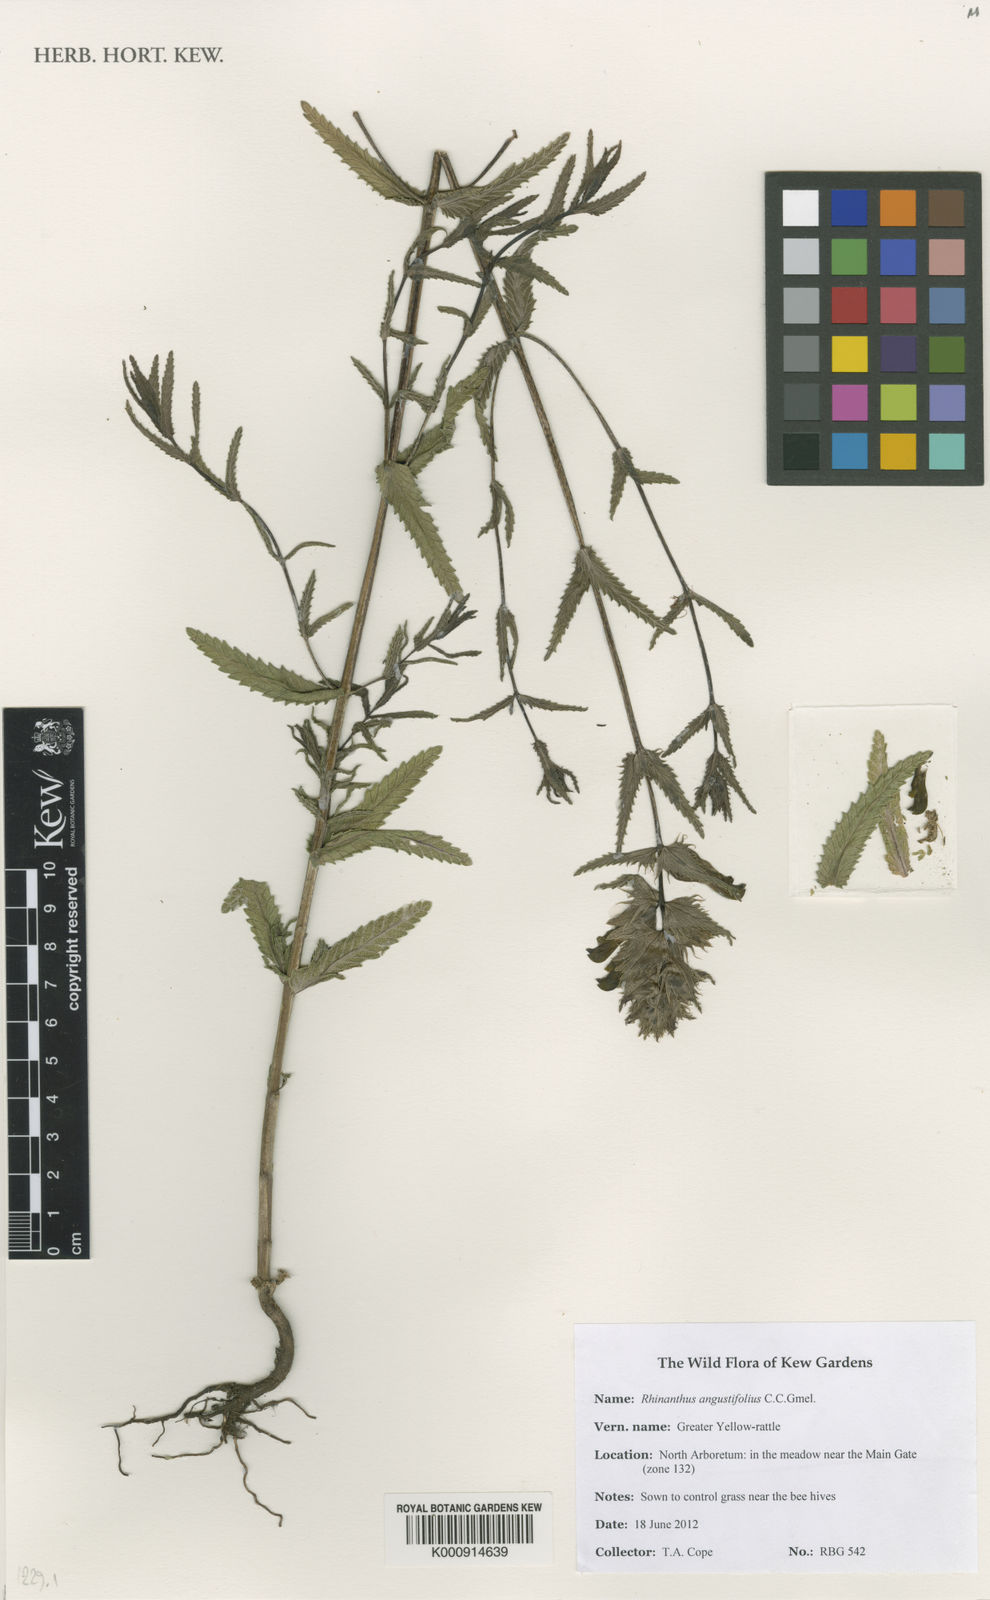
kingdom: Plantae
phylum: Tracheophyta
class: Magnoliopsida
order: Lamiales
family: Orobanchaceae
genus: Rhinanthus
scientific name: Rhinanthus
